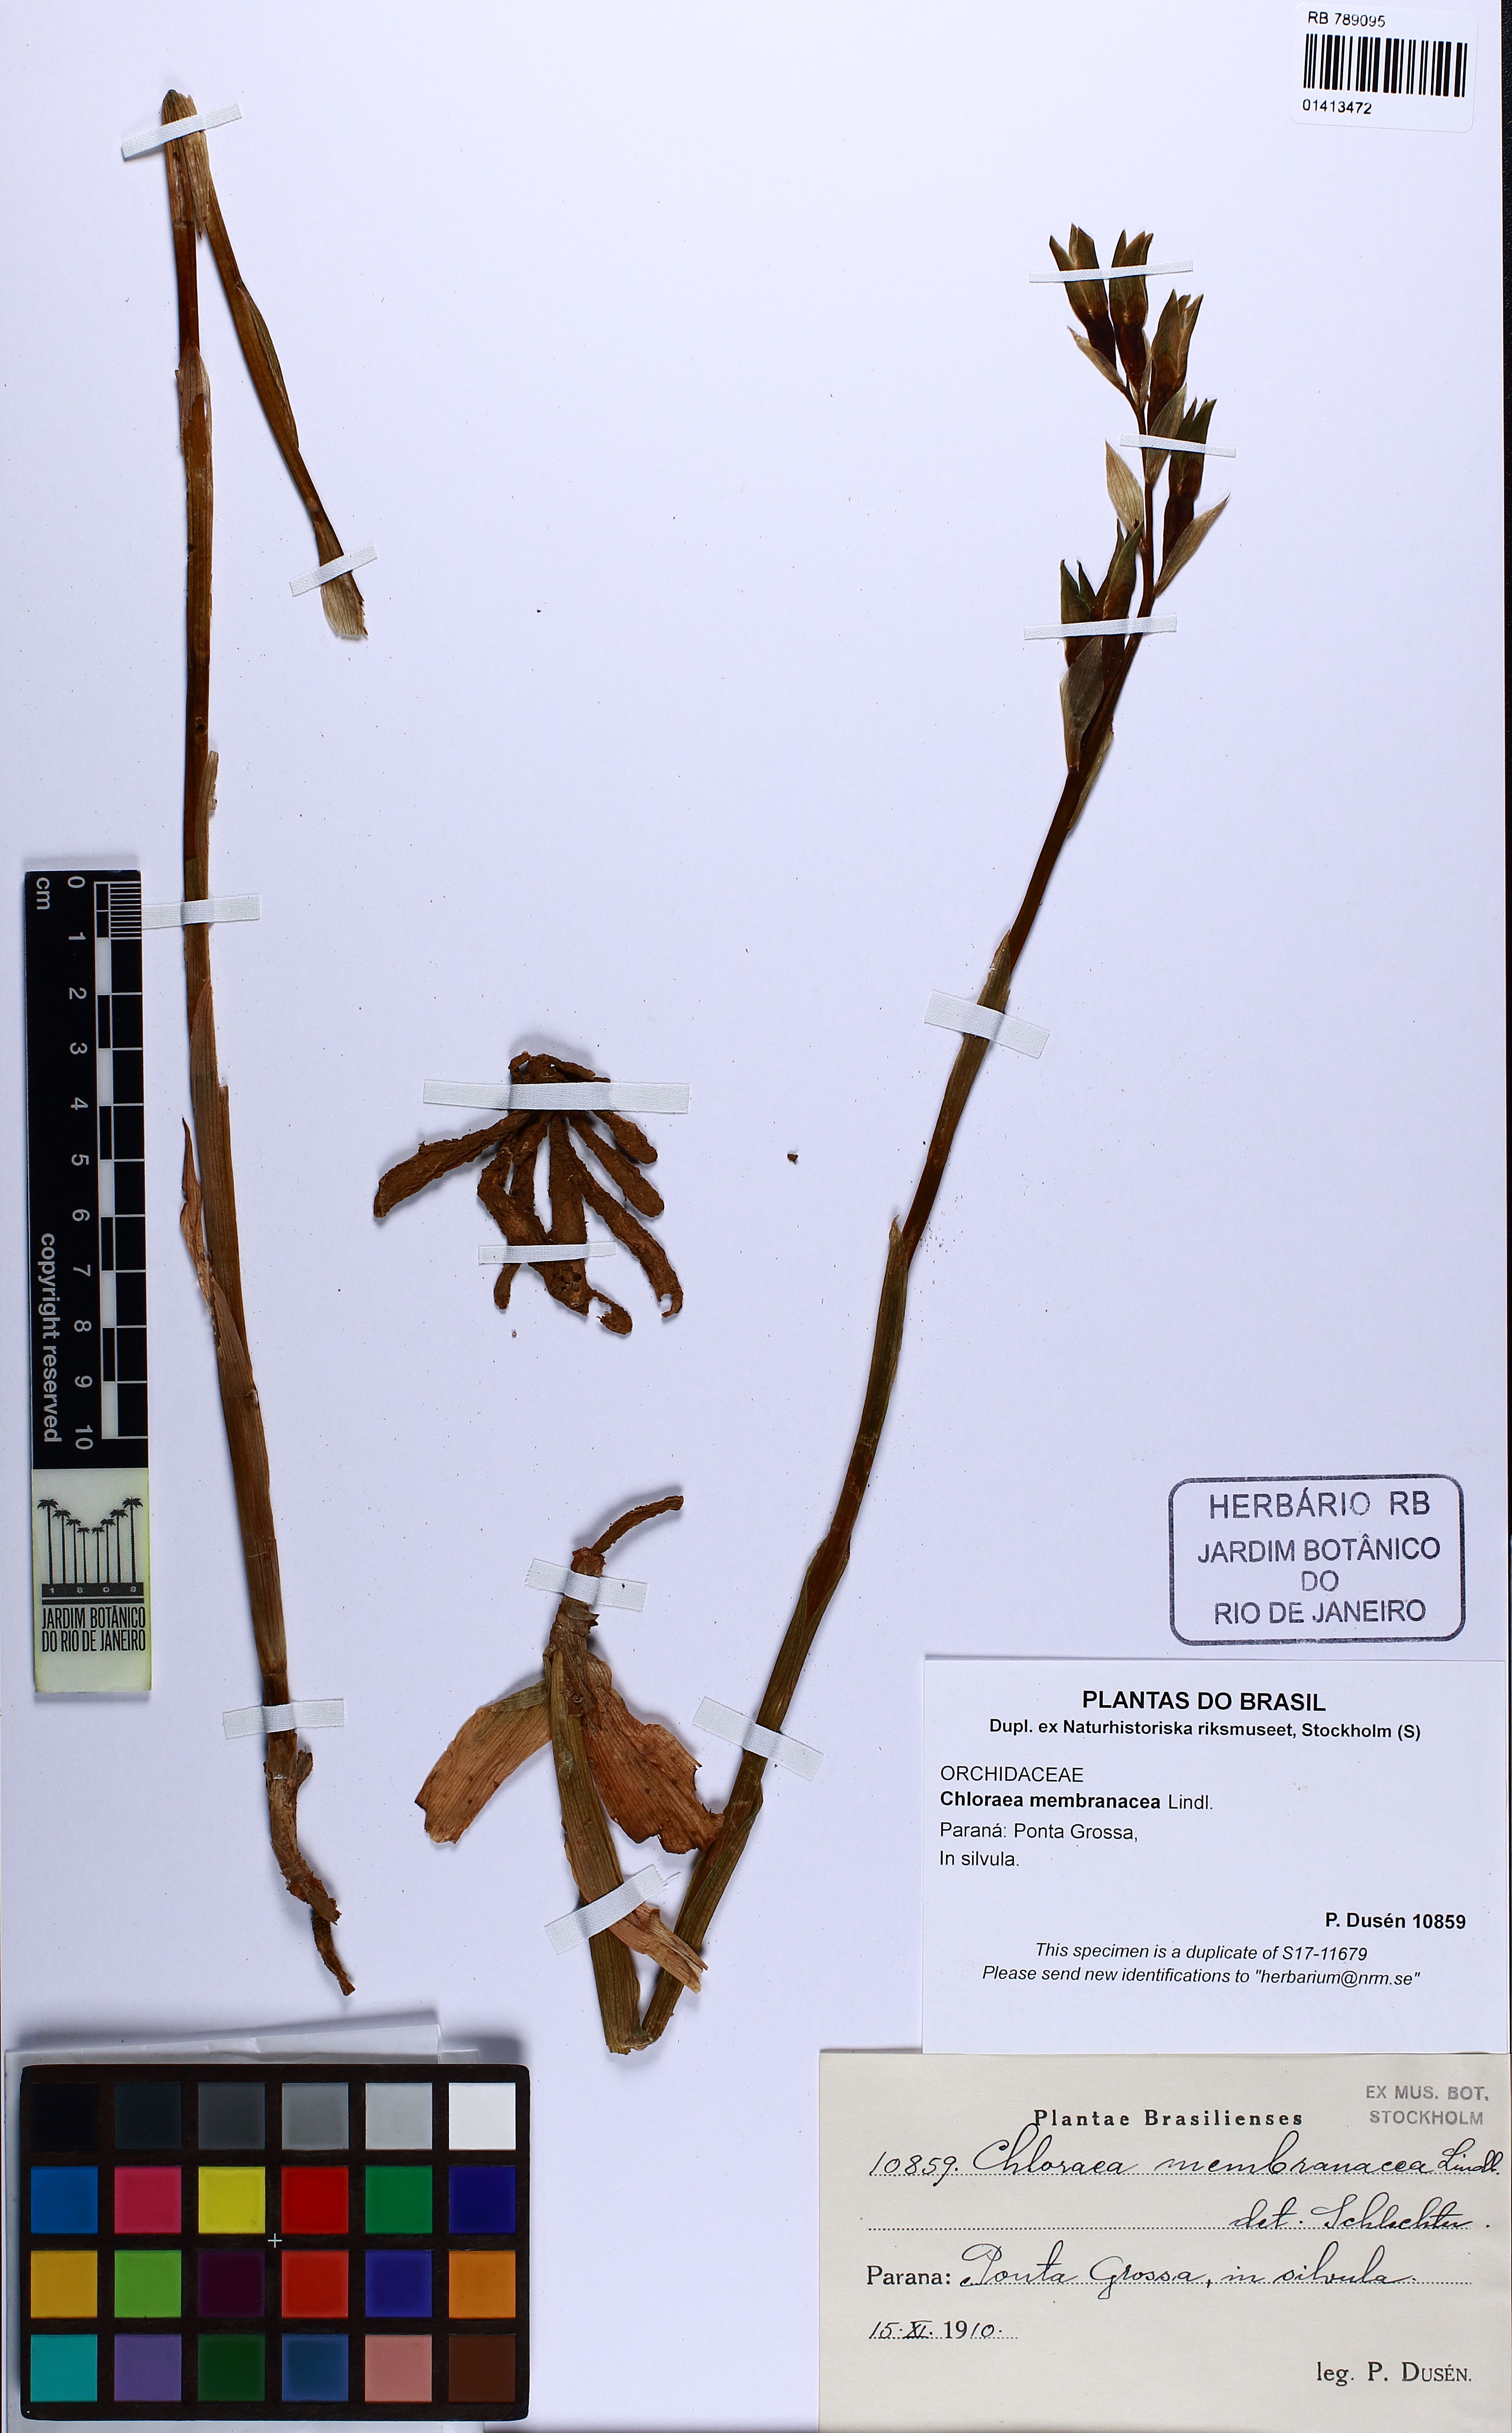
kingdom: Plantae
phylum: Tracheophyta
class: Liliopsida
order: Asparagales
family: Orchidaceae
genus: Chloraea
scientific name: Chloraea membranacea
